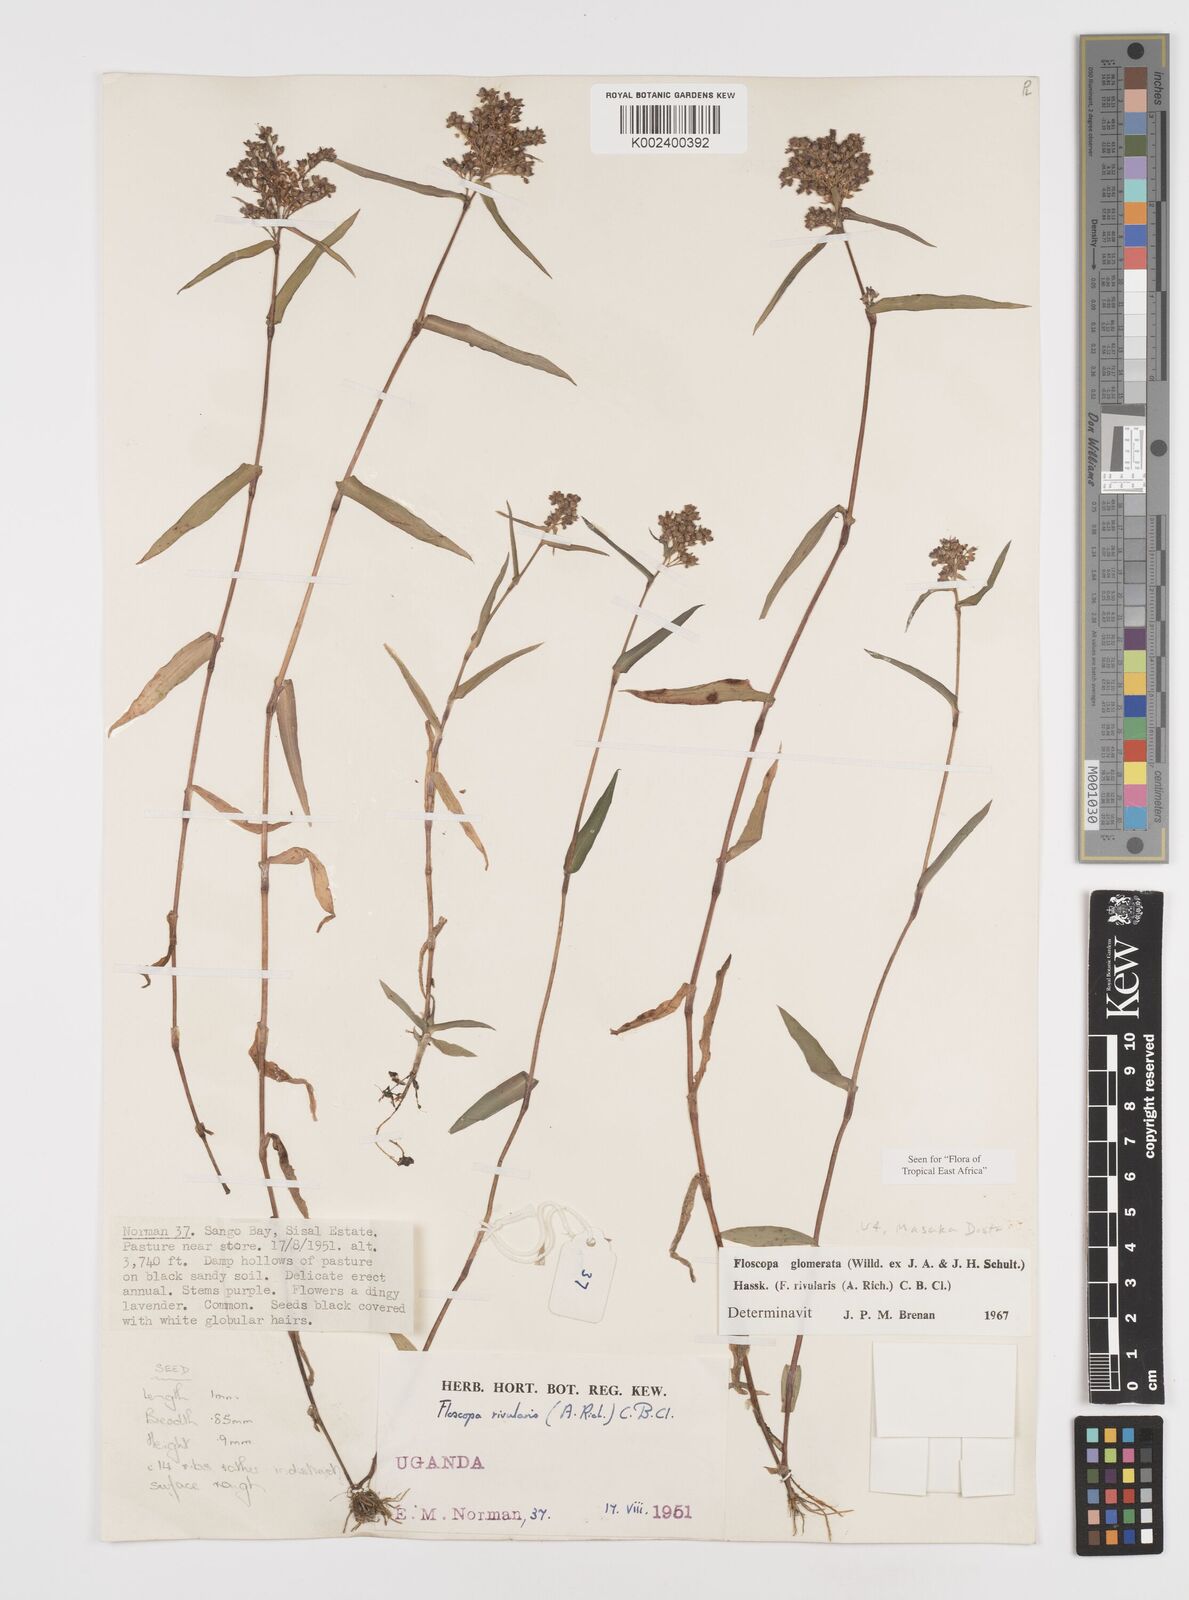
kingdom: Plantae
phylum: Tracheophyta
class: Liliopsida
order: Commelinales
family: Commelinaceae
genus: Floscopa
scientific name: Floscopa glomerata
